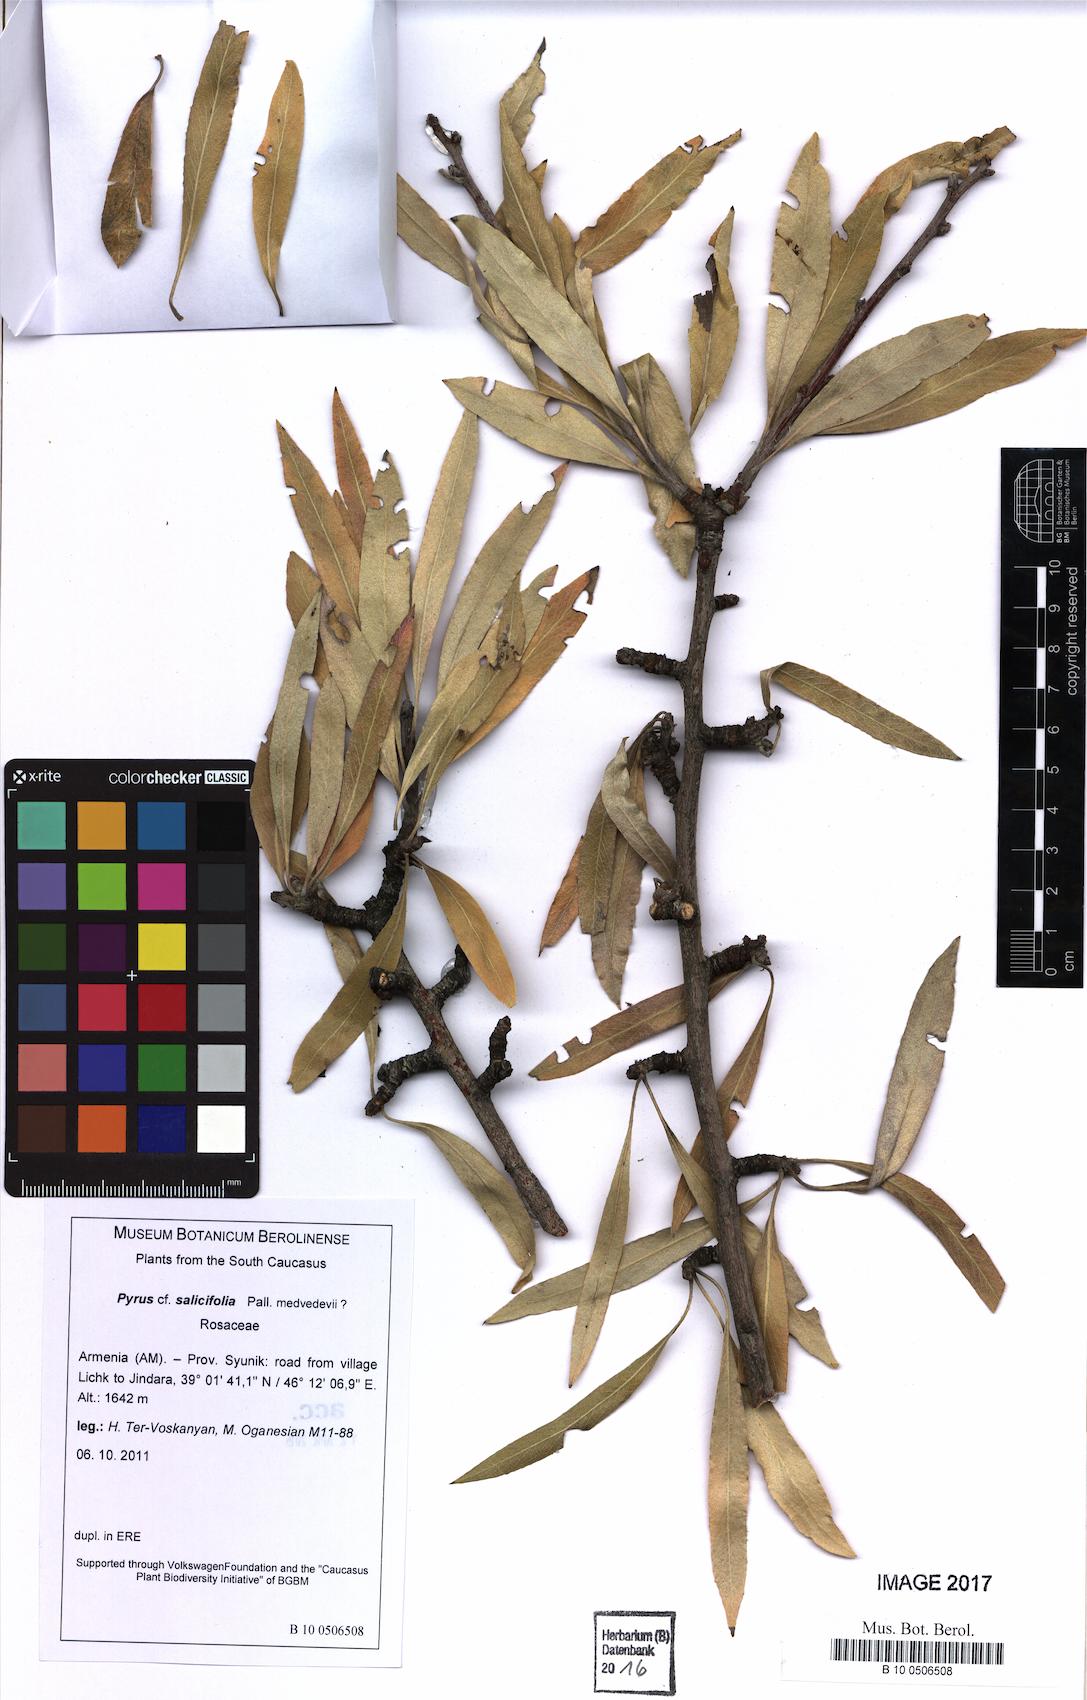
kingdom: Plantae
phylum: Tracheophyta
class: Magnoliopsida
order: Rosales
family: Rosaceae
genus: Pyrus
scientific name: Pyrus salicifolia
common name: Willow-leaved pear
